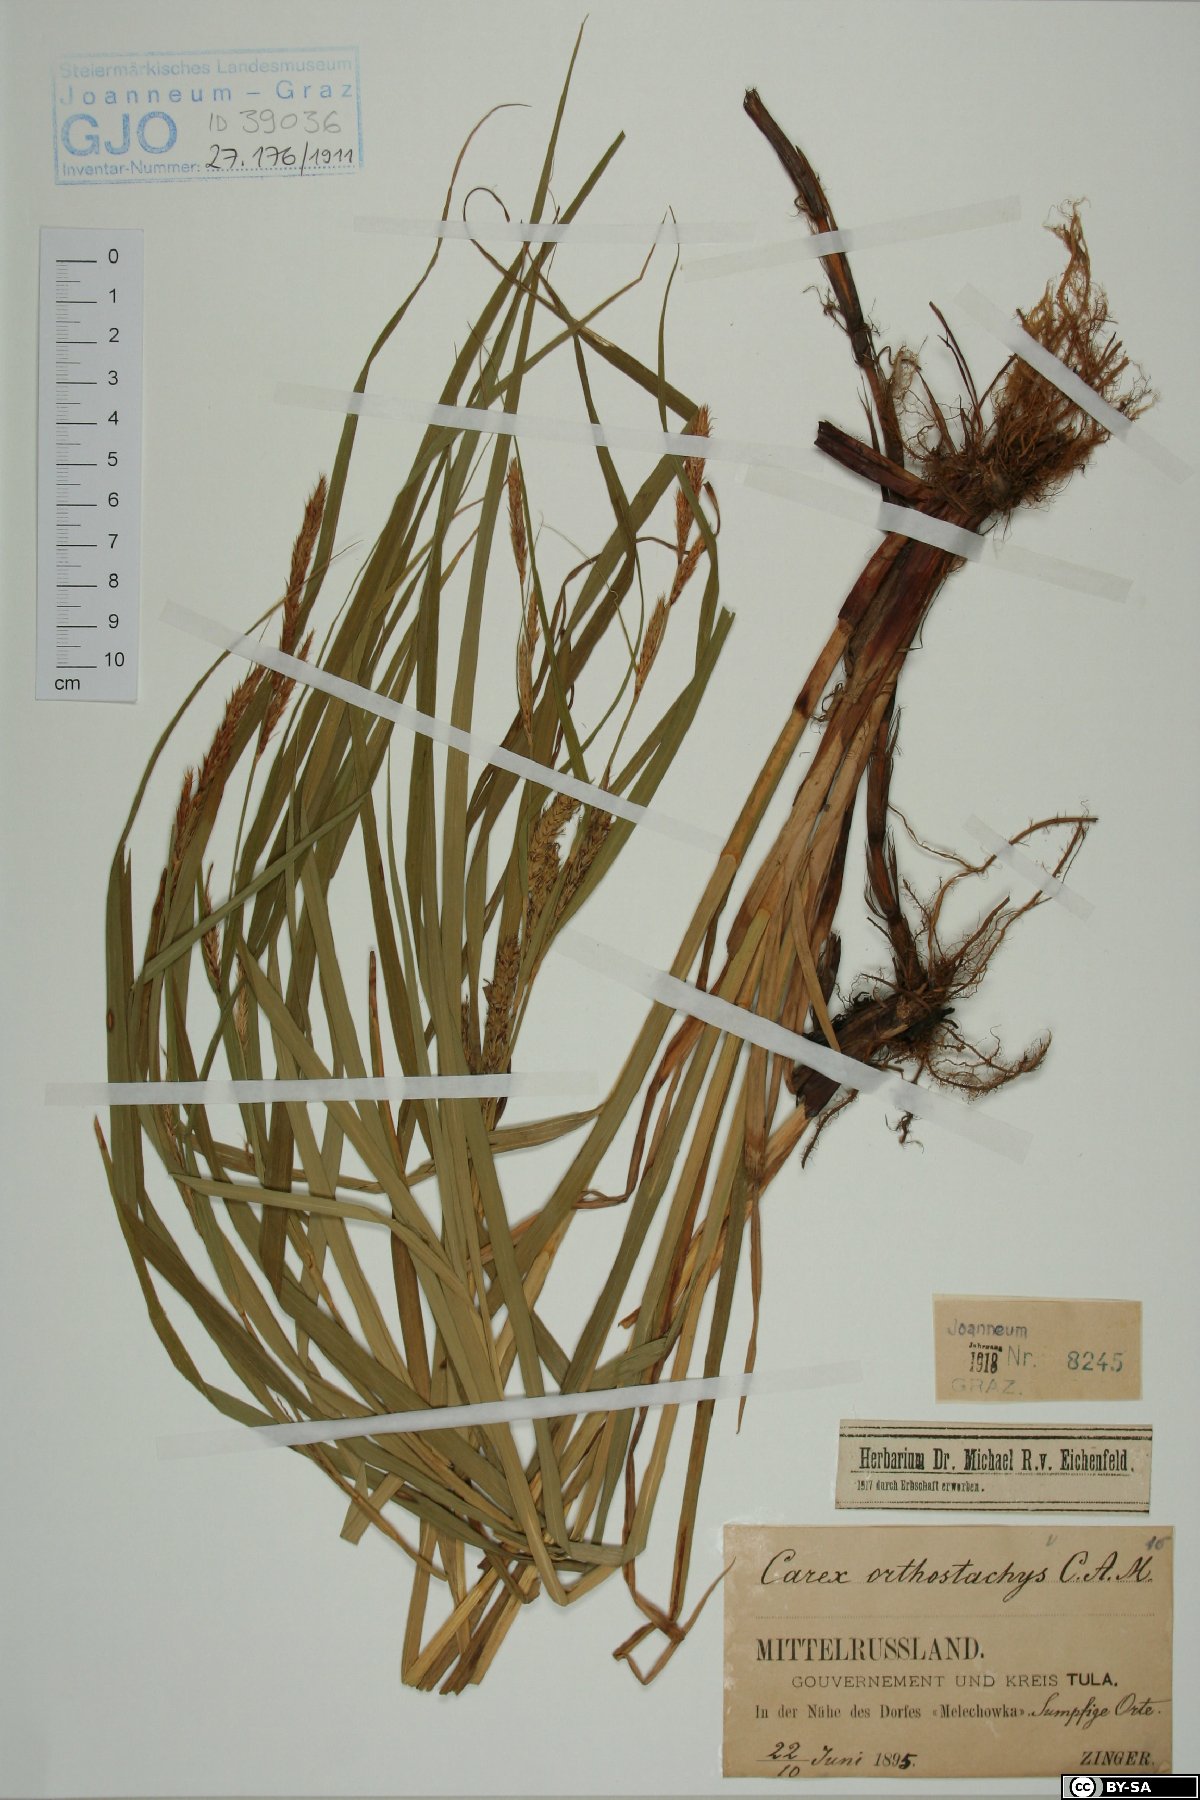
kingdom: Plantae
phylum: Tracheophyta
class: Liliopsida
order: Poales
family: Cyperaceae
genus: Carex
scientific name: Carex atherodes
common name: Wheat sedge
